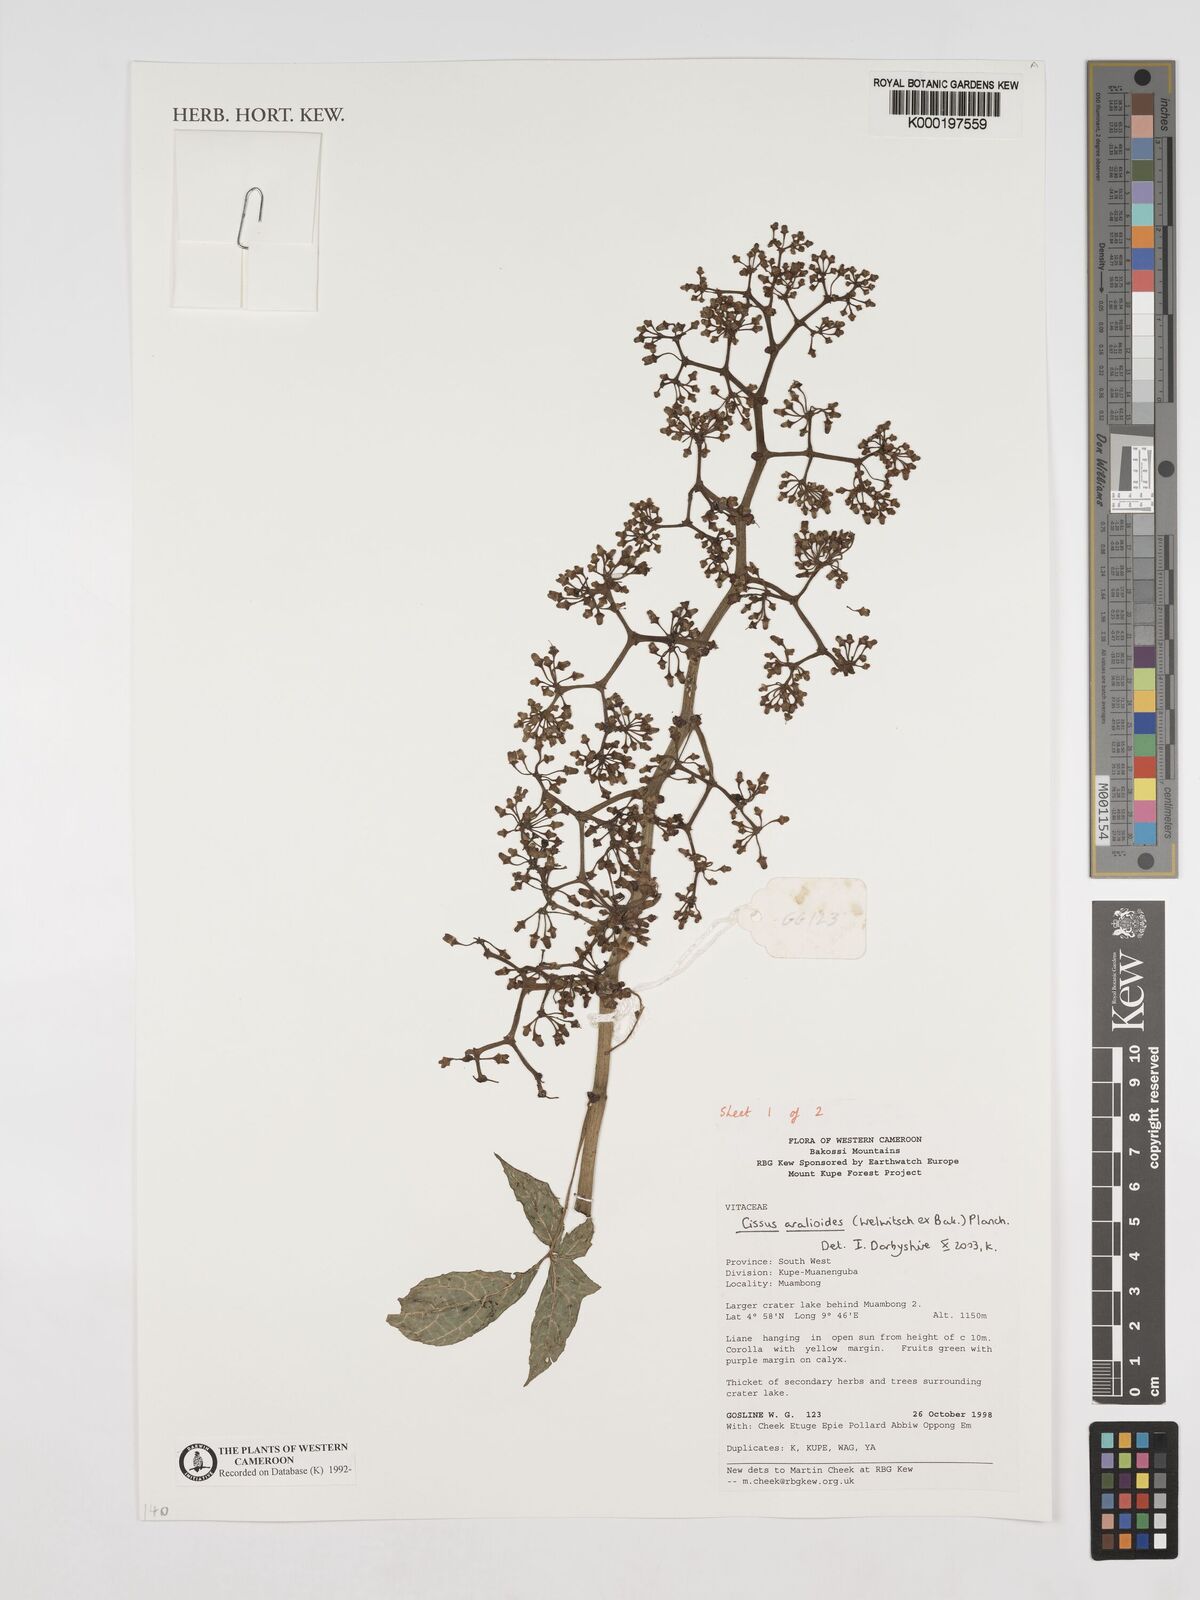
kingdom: Plantae
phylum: Tracheophyta
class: Magnoliopsida
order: Vitales
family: Vitaceae
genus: Cissus
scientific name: Cissus aralioides
